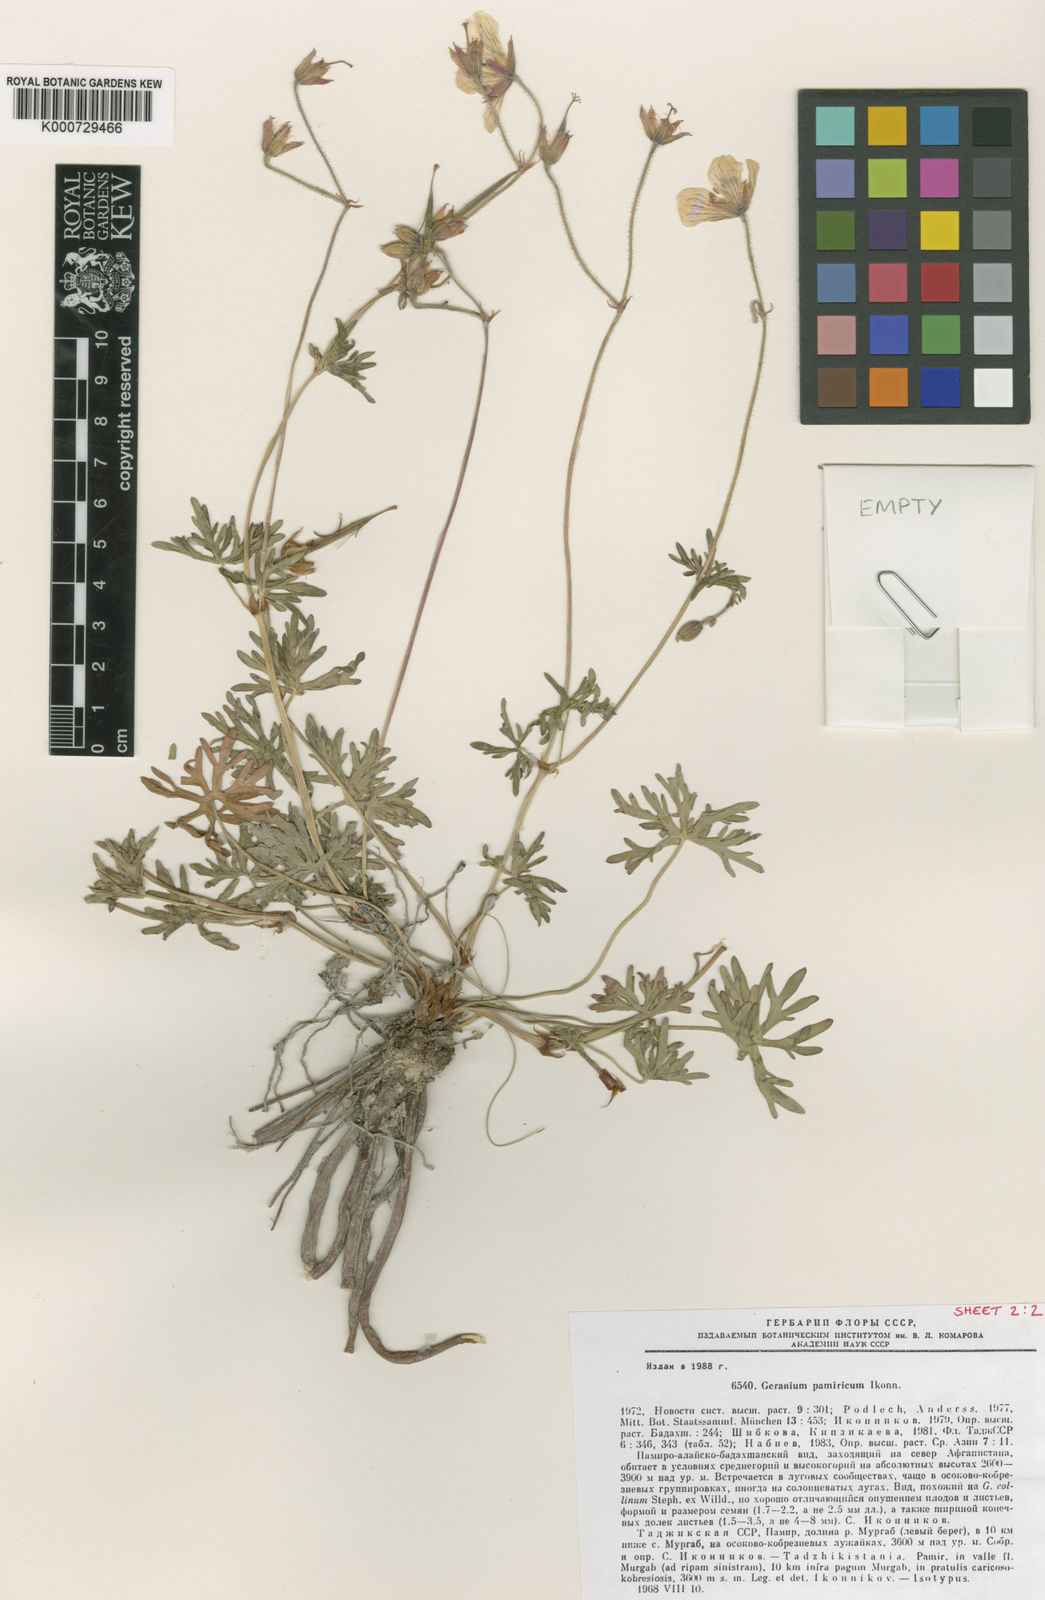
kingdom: Plantae
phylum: Tracheophyta
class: Magnoliopsida
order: Geraniales
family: Geraniaceae
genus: Geranium
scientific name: Geranium collinum
